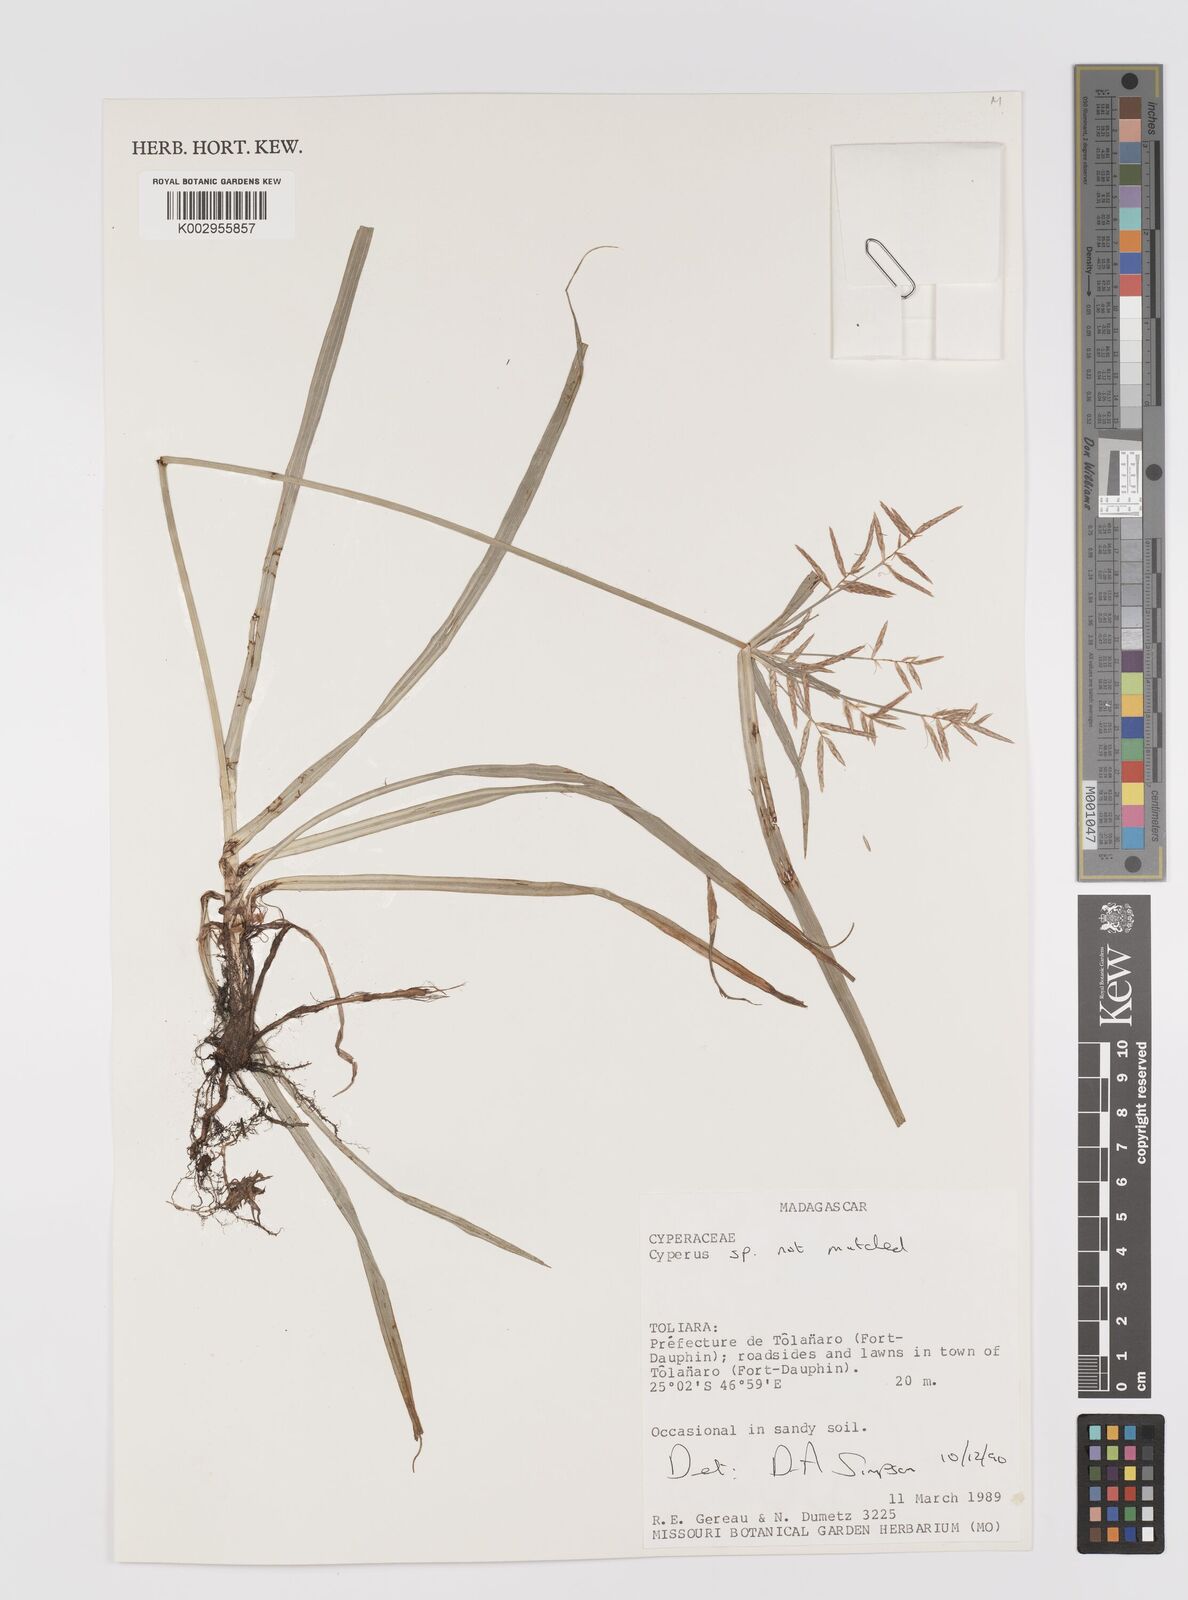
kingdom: Plantae
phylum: Tracheophyta
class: Liliopsida
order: Poales
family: Cyperaceae
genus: Cyperus
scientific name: Cyperus
